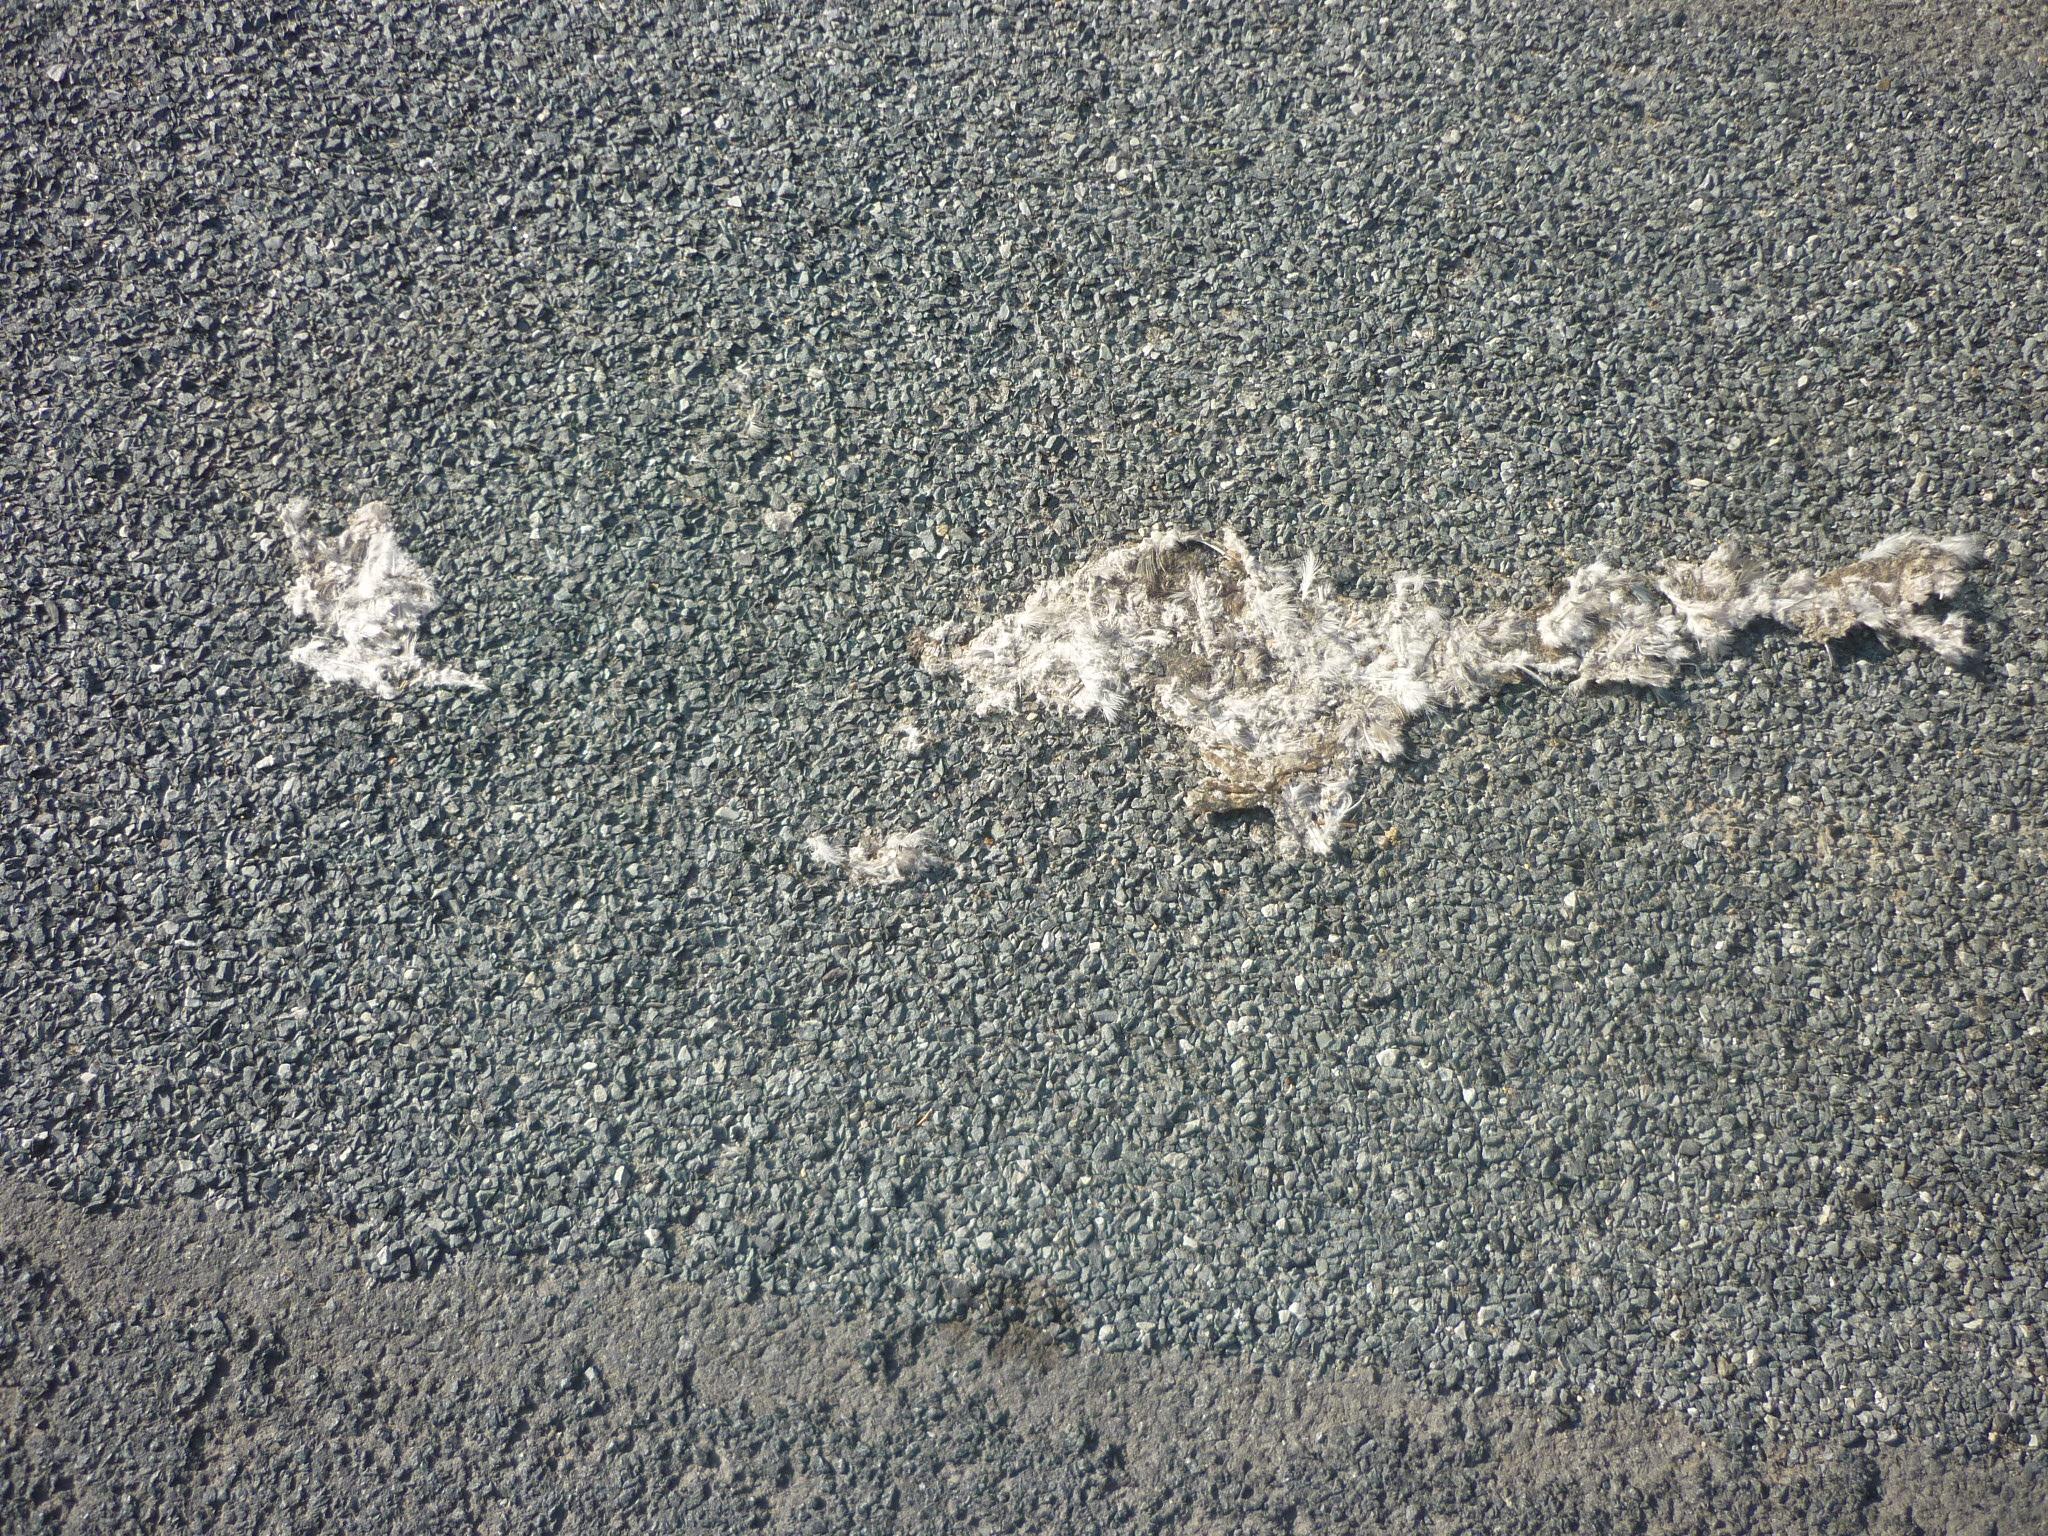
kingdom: Animalia
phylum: Chordata
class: Aves
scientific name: Aves
